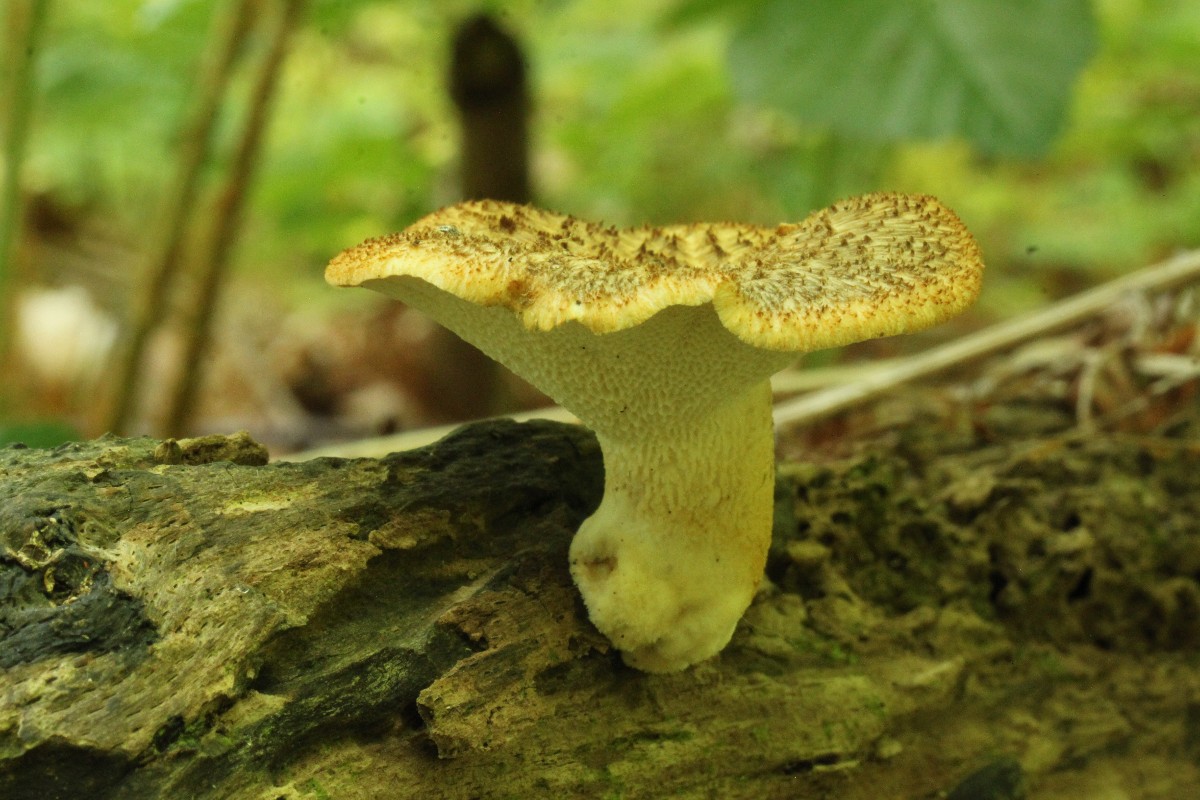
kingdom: Fungi
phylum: Basidiomycota
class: Agaricomycetes
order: Polyporales
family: Polyporaceae
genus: Polyporus
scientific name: Polyporus tuberaster
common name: knoldet stilkporesvamp
